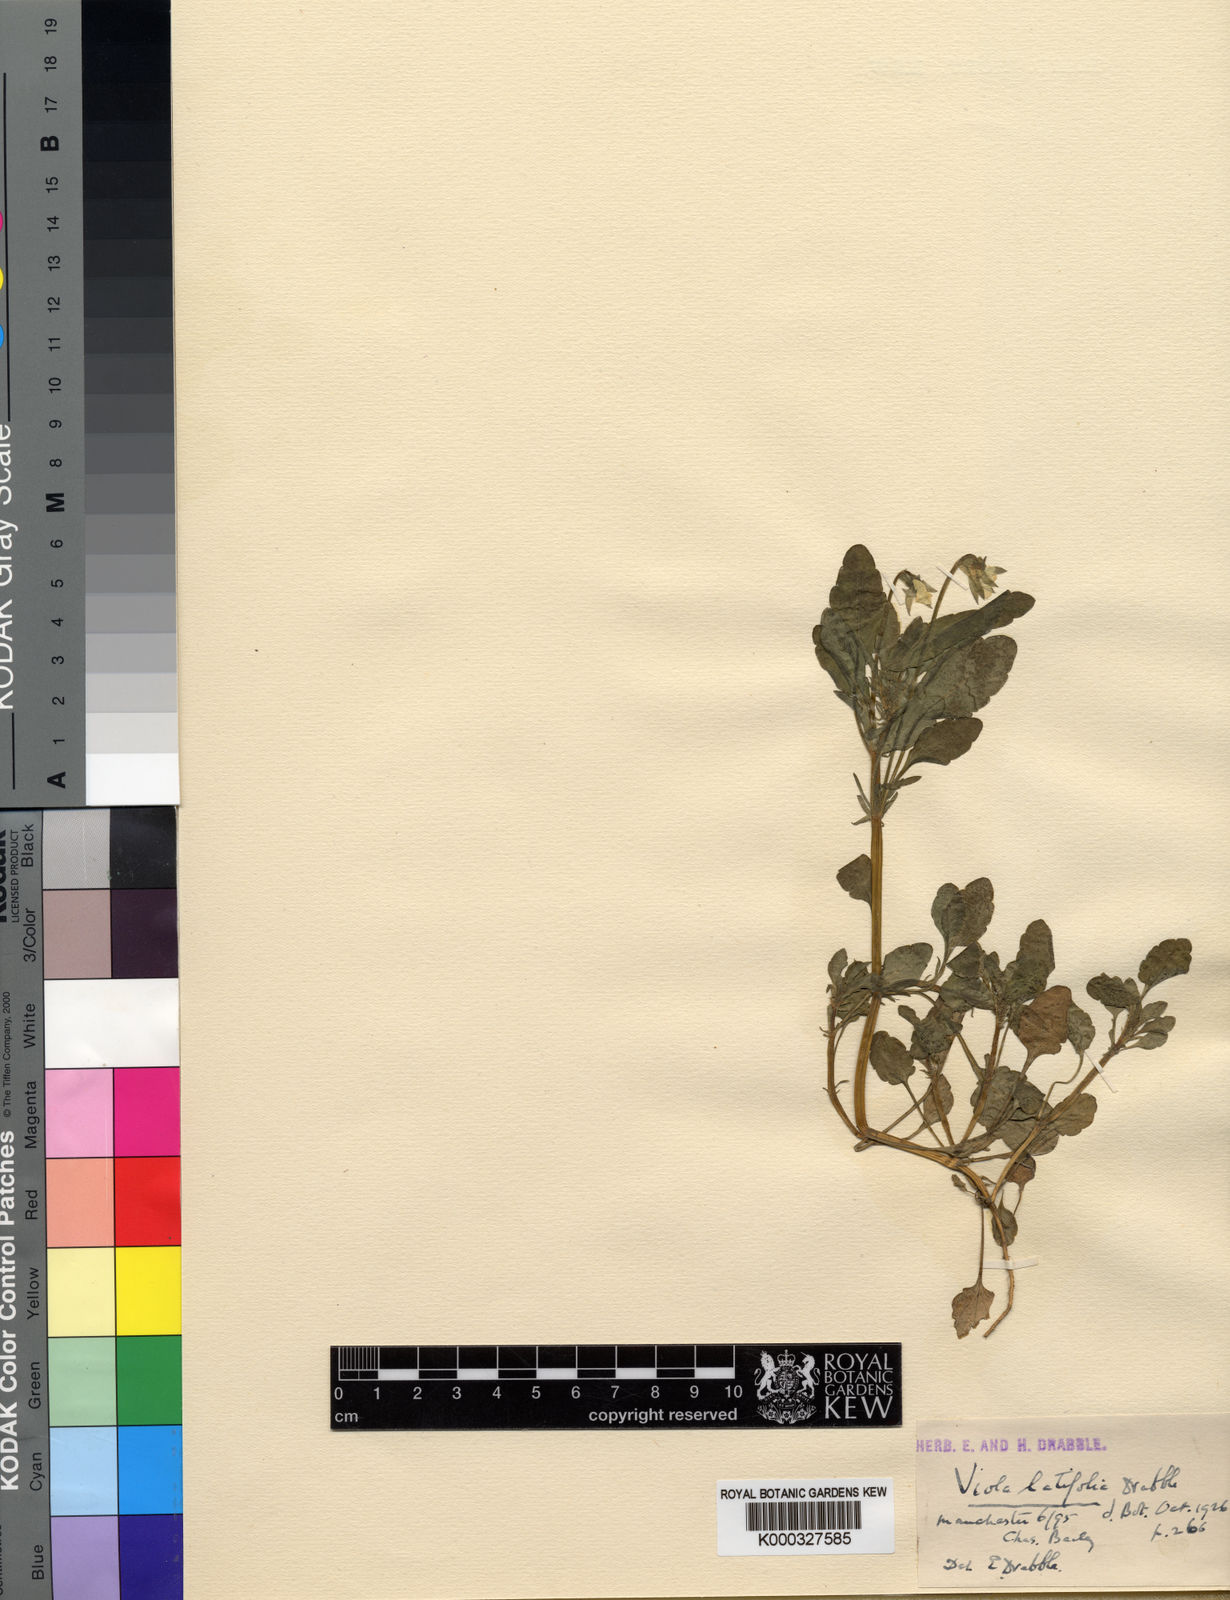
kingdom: Plantae
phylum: Tracheophyta
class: Magnoliopsida
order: Malpighiales
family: Violaceae
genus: Viola
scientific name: Viola arvensis
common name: Field pansy
